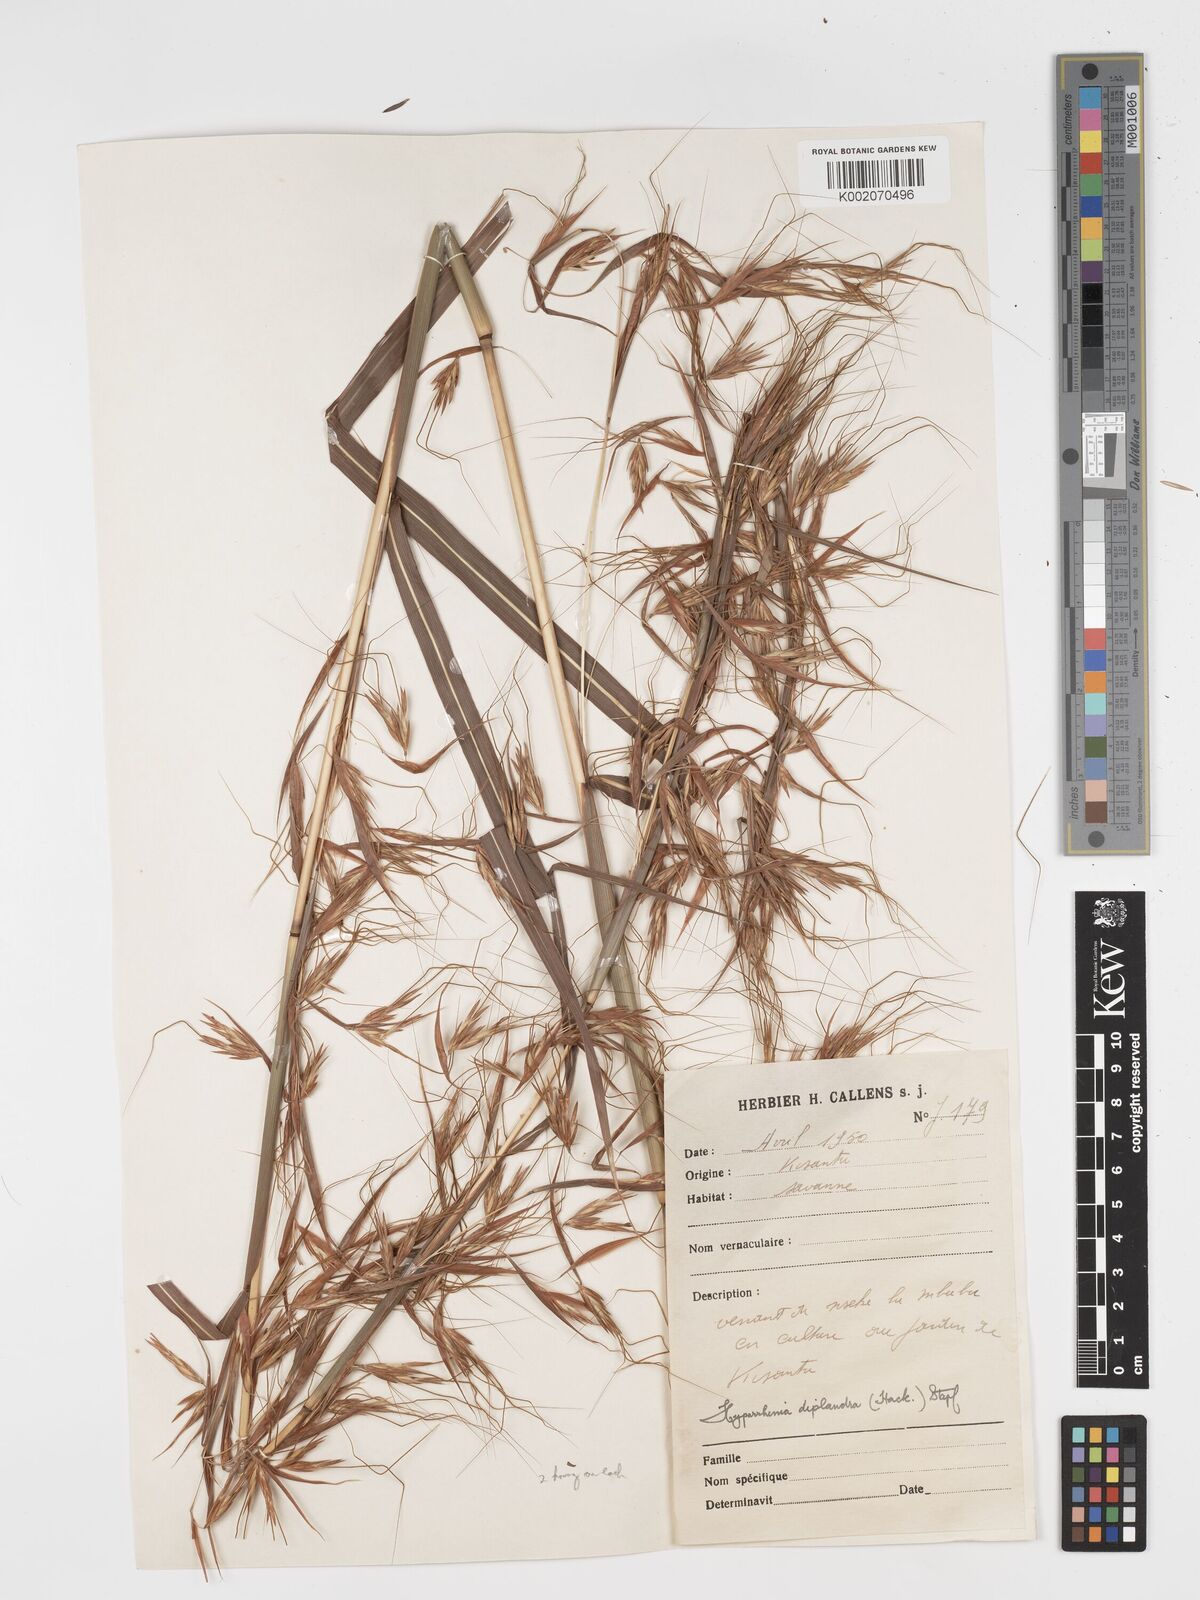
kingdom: Plantae
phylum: Tracheophyta
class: Liliopsida
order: Poales
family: Poaceae
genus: Hyparrhenia
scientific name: Hyparrhenia diplandra
